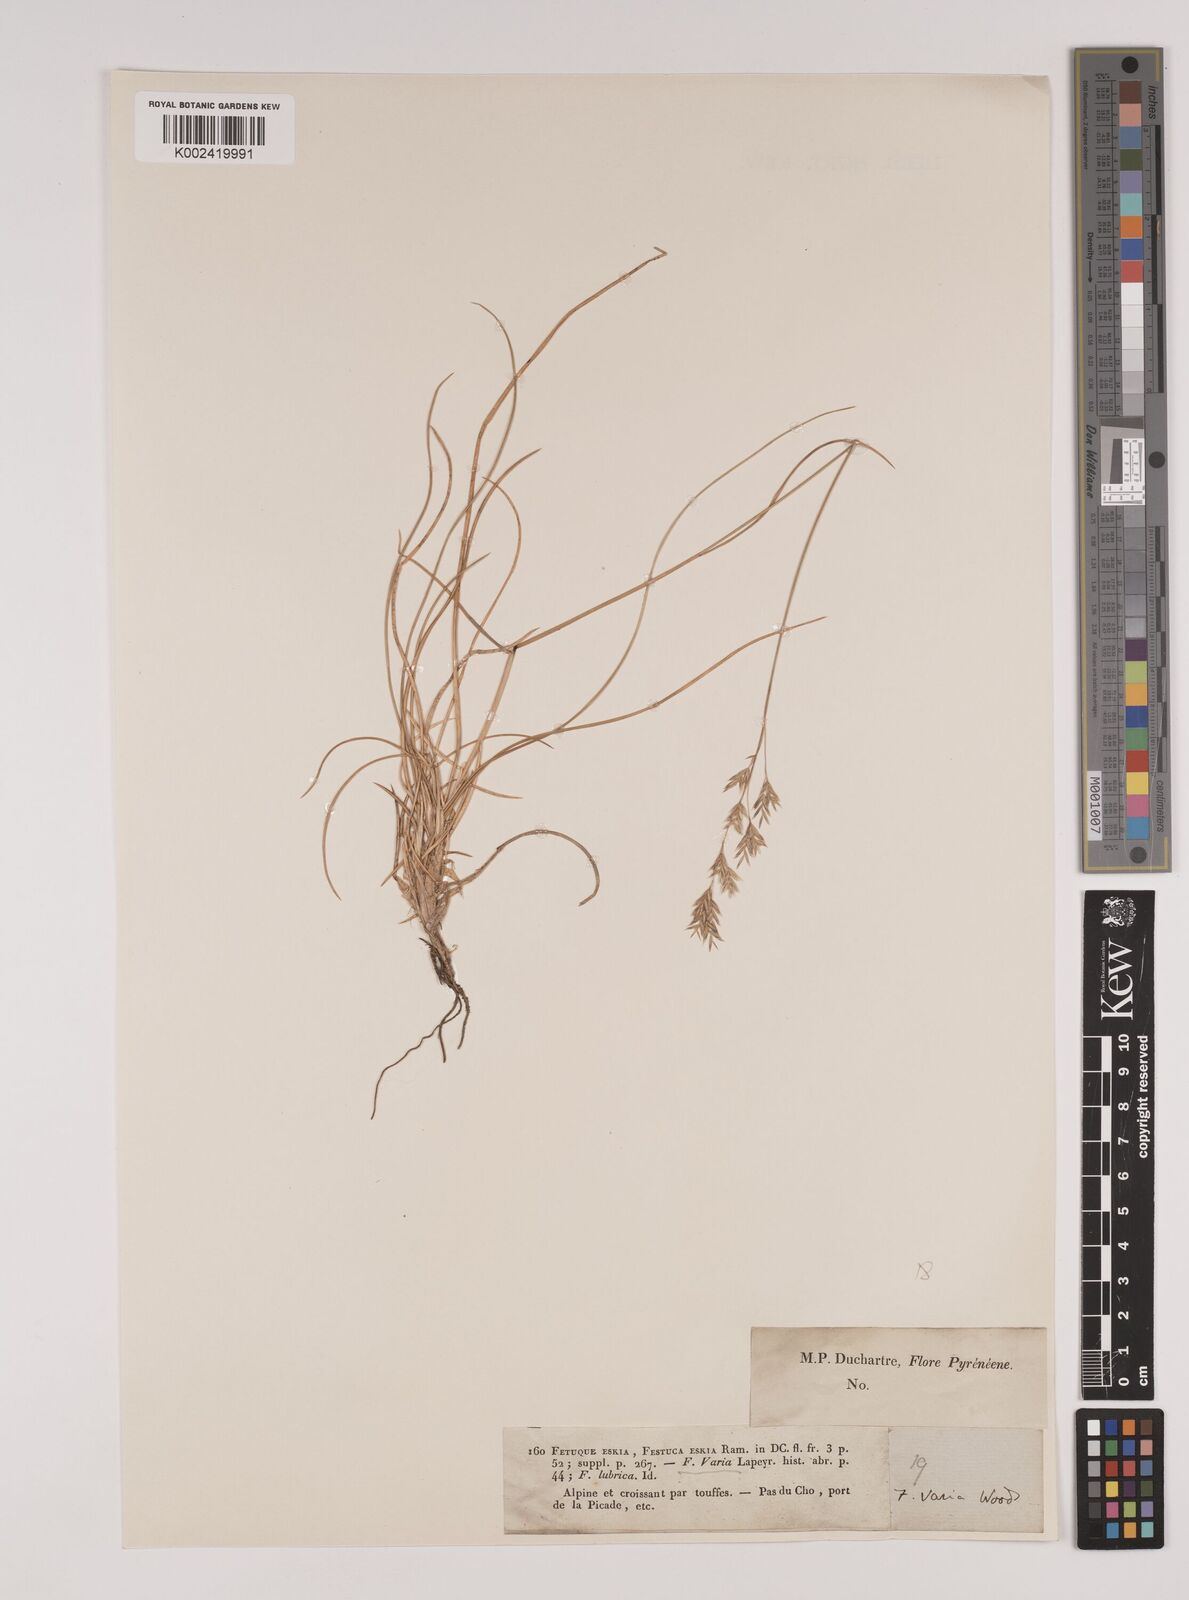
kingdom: Plantae
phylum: Tracheophyta
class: Liliopsida
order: Poales
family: Poaceae
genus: Festuca
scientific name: Festuca eskia
